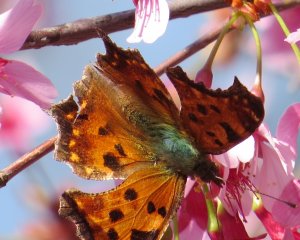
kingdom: Animalia
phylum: Arthropoda
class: Insecta
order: Lepidoptera
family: Nymphalidae
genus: Polygonia
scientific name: Polygonia comma
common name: Eastern Comma
